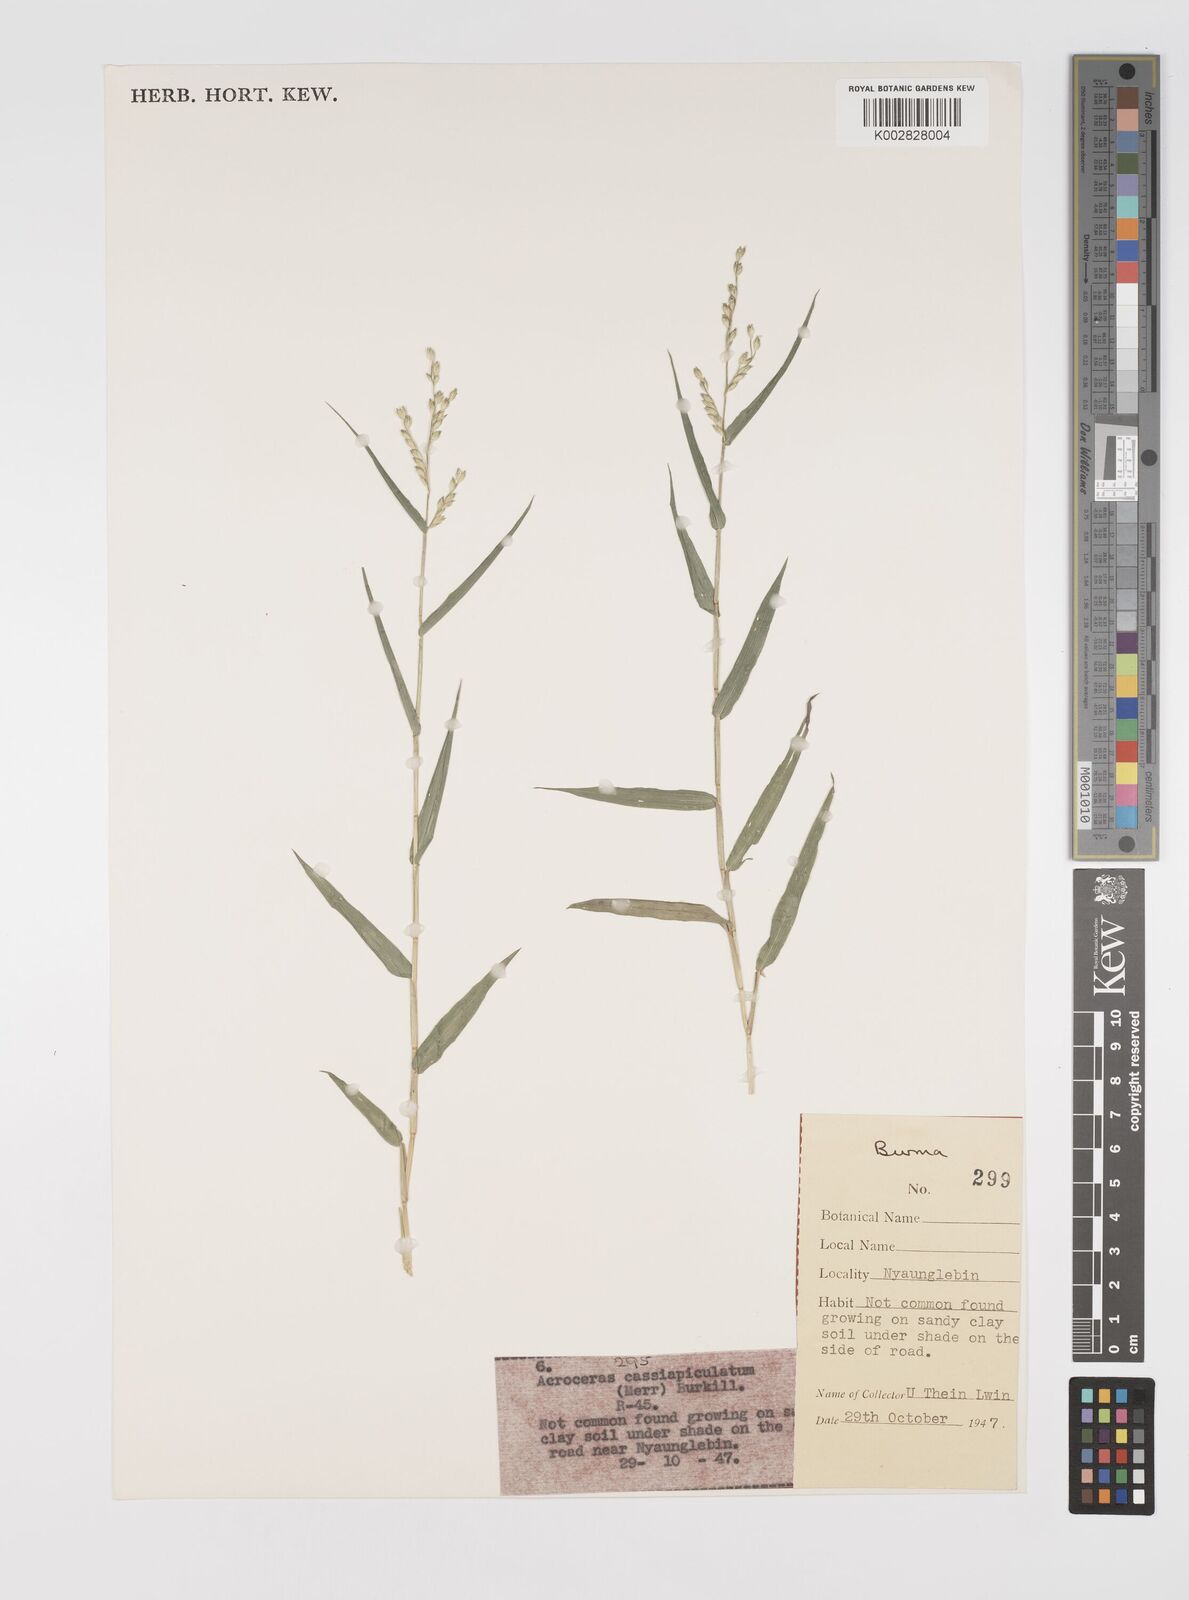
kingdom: Plantae
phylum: Tracheophyta
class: Liliopsida
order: Poales
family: Poaceae
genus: Acroceras
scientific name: Acroceras munroanum
